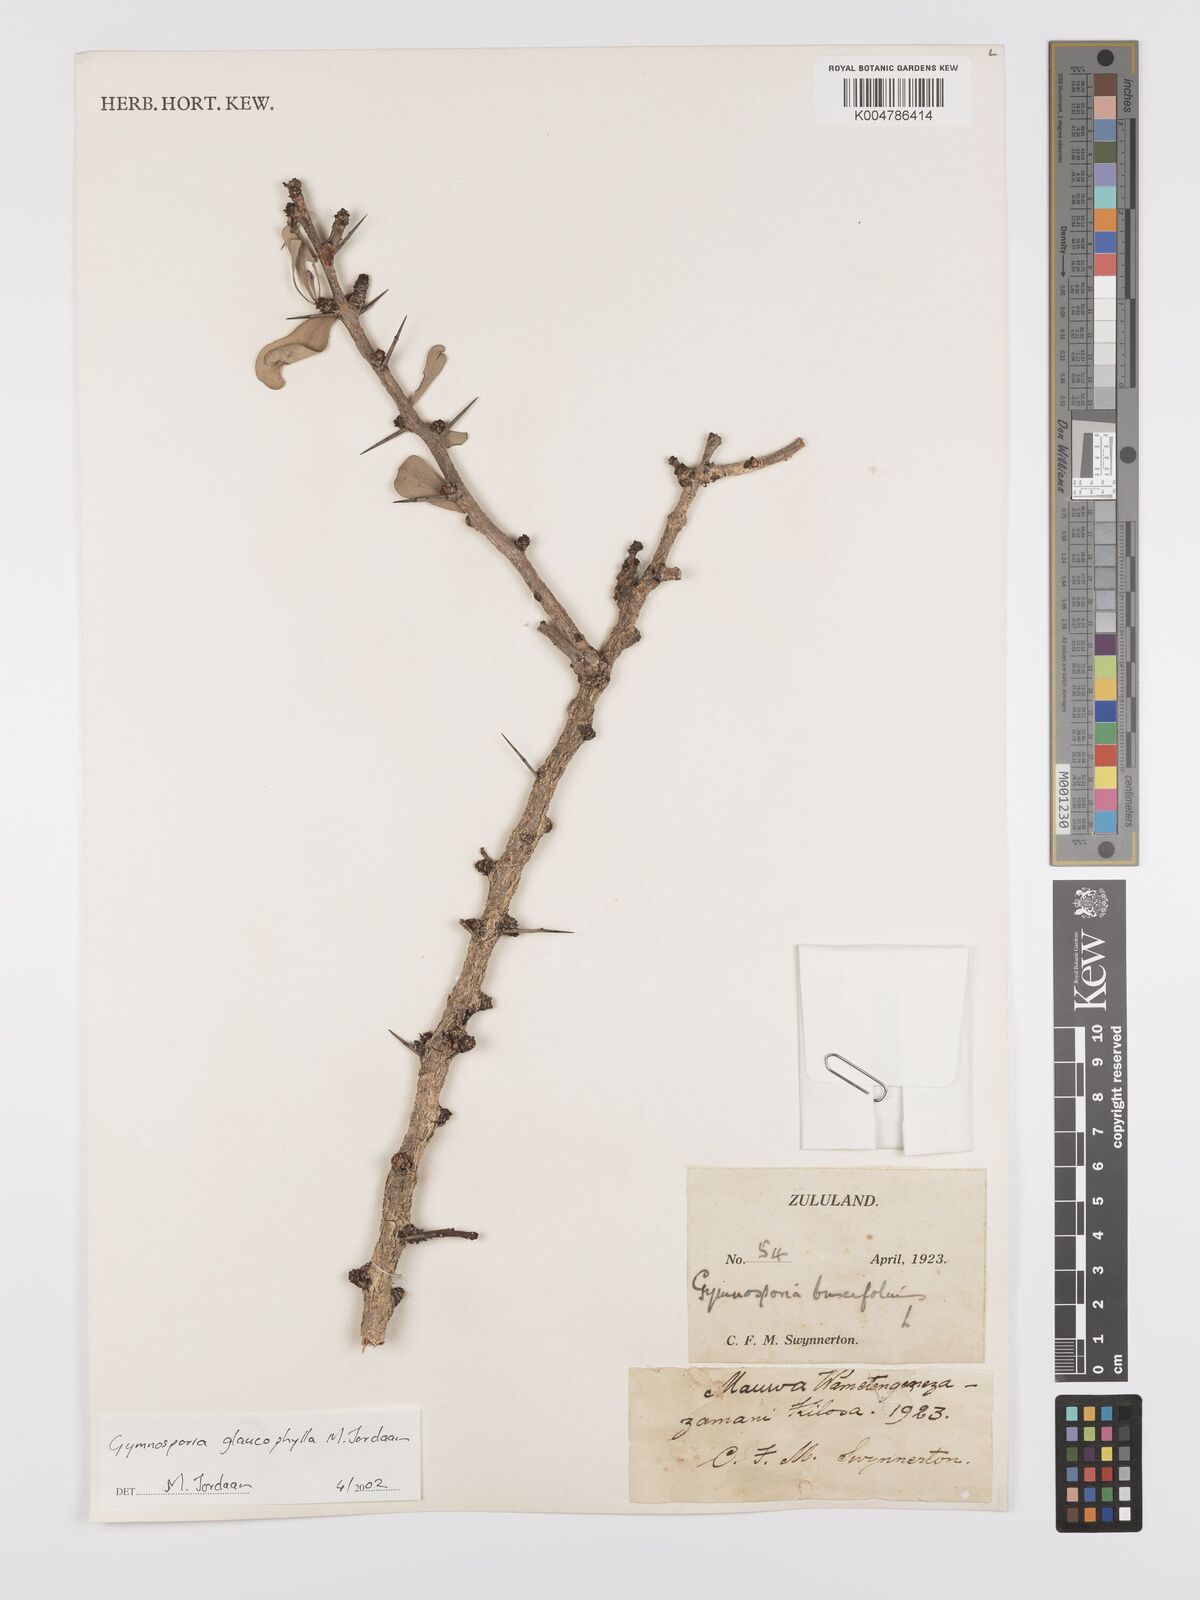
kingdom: Plantae
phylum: Tracheophyta
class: Magnoliopsida
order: Celastrales
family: Celastraceae
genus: Gymnosporia
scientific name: Gymnosporia glaucophylla
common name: Blue spike-thorn
